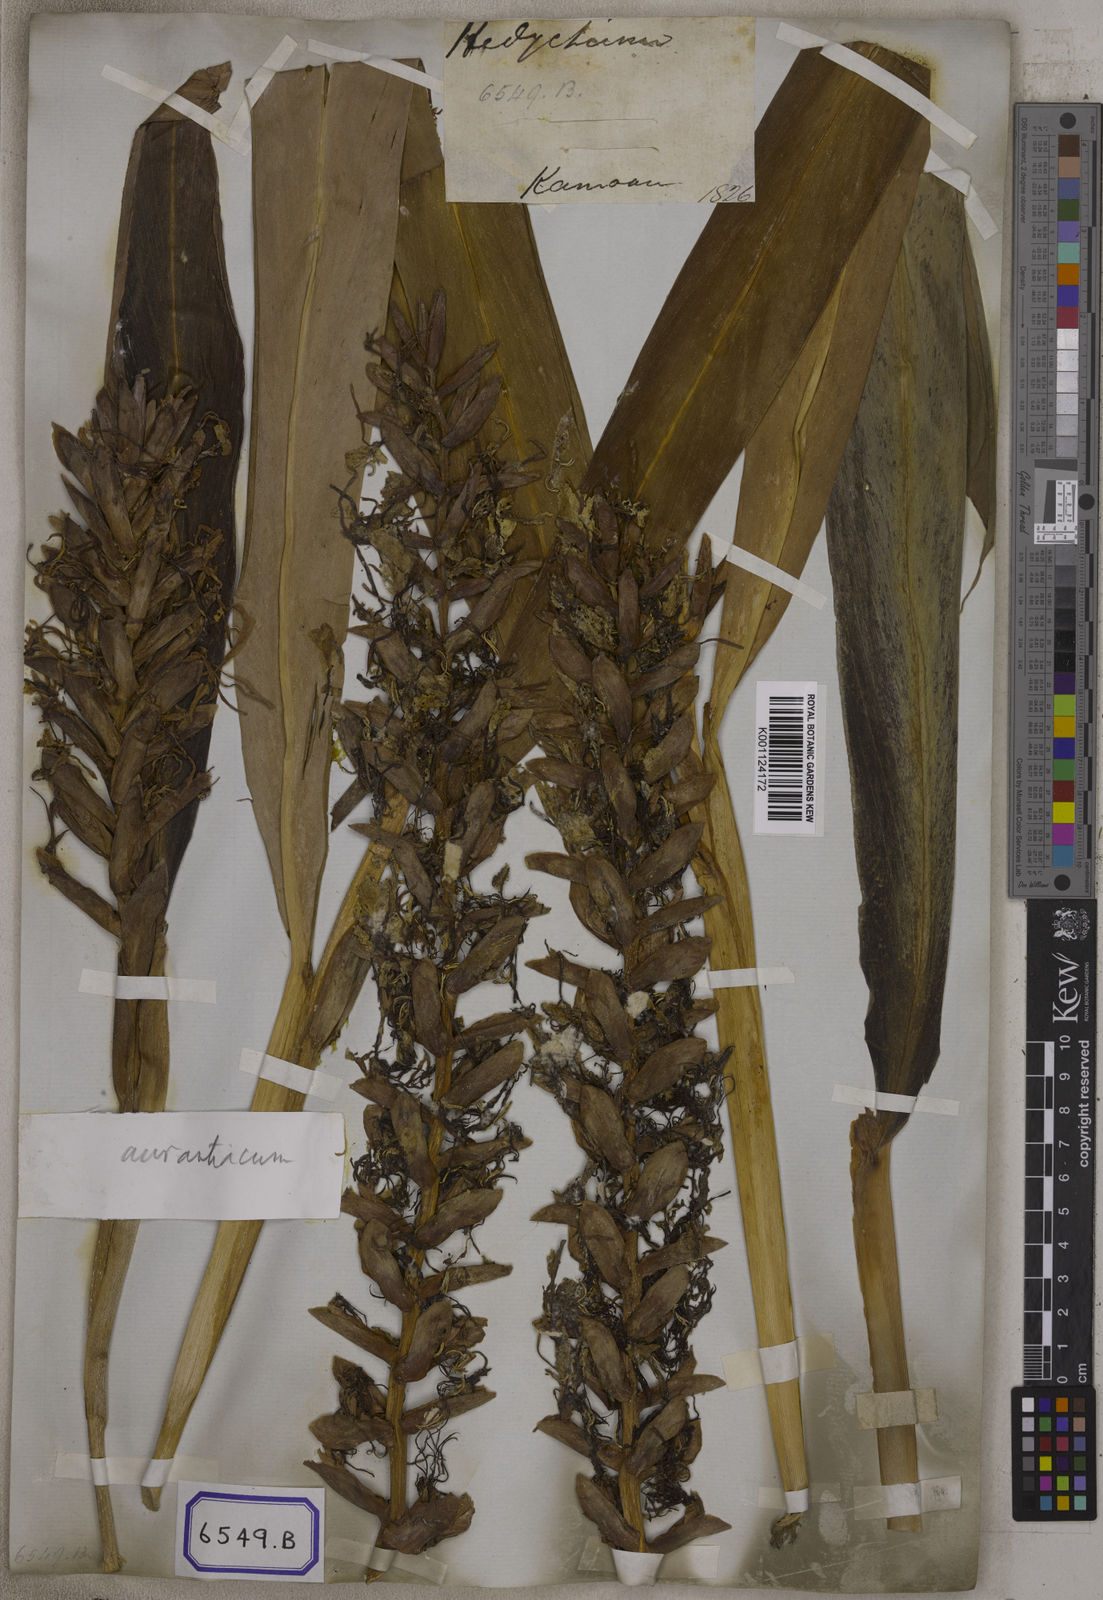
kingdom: Plantae
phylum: Tracheophyta
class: Liliopsida
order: Zingiberales
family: Zingiberaceae
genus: Hedychium
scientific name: Hedychium elatum
